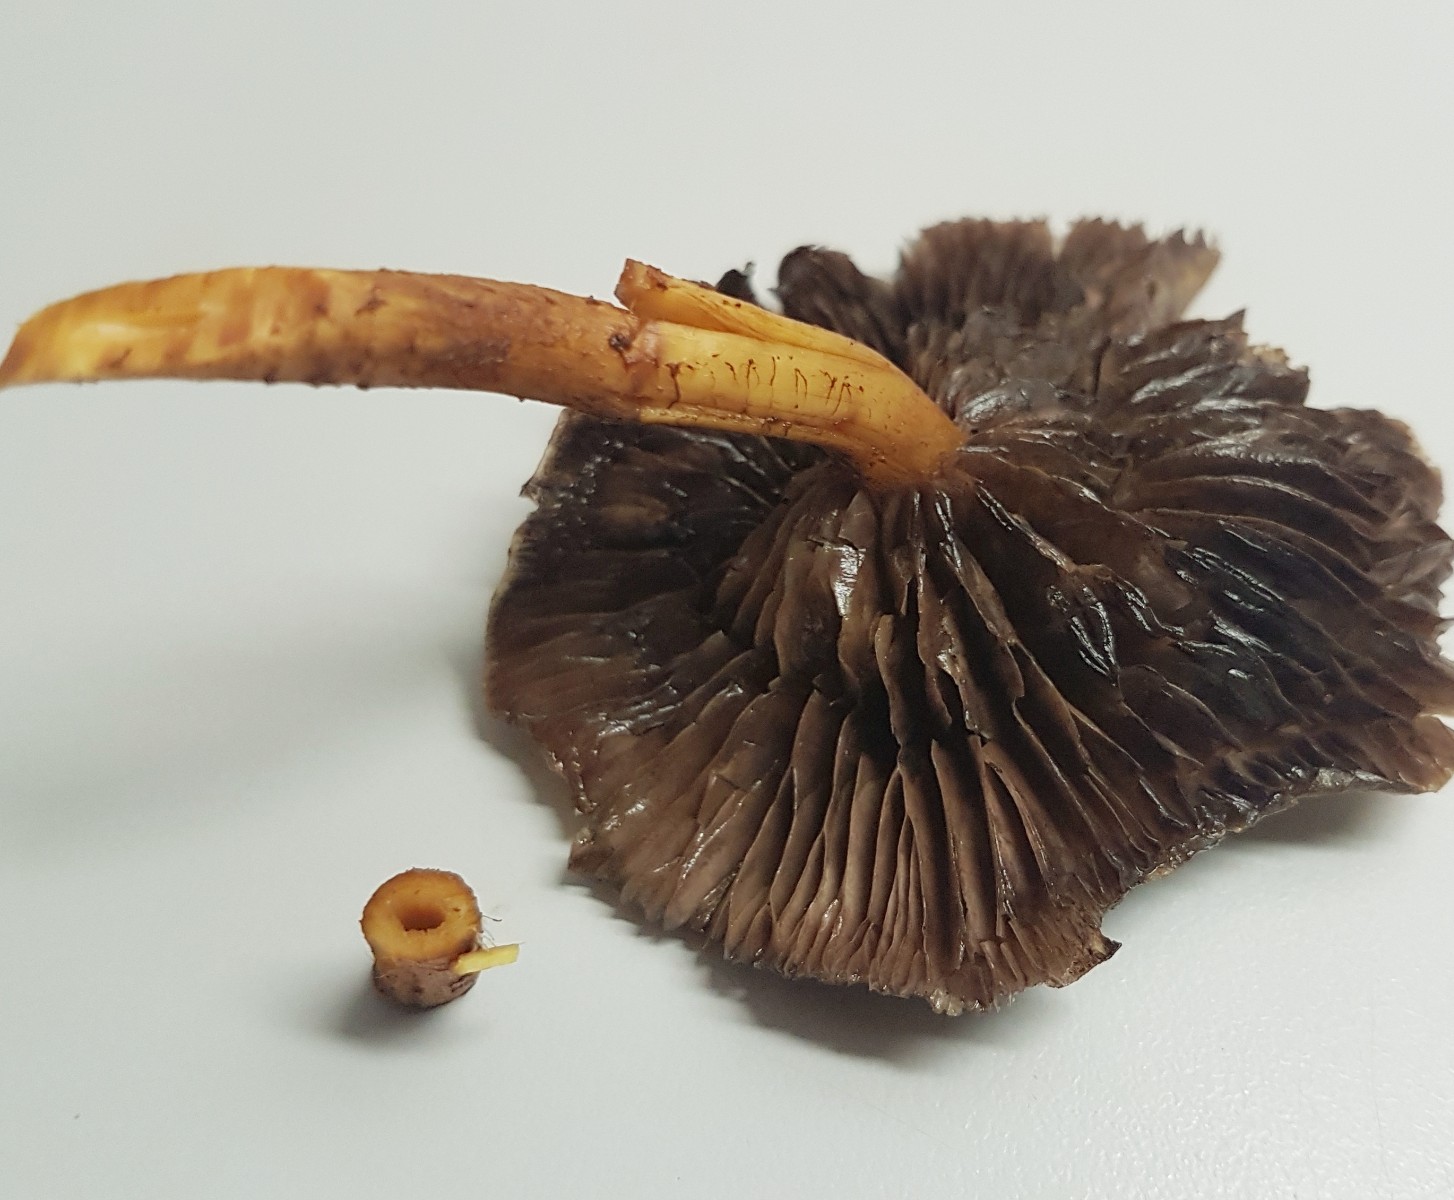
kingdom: Fungi
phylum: Basidiomycota
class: Agaricomycetes
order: Agaricales
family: Strophariaceae
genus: Hypholoma
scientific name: Hypholoma
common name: svovlhat
